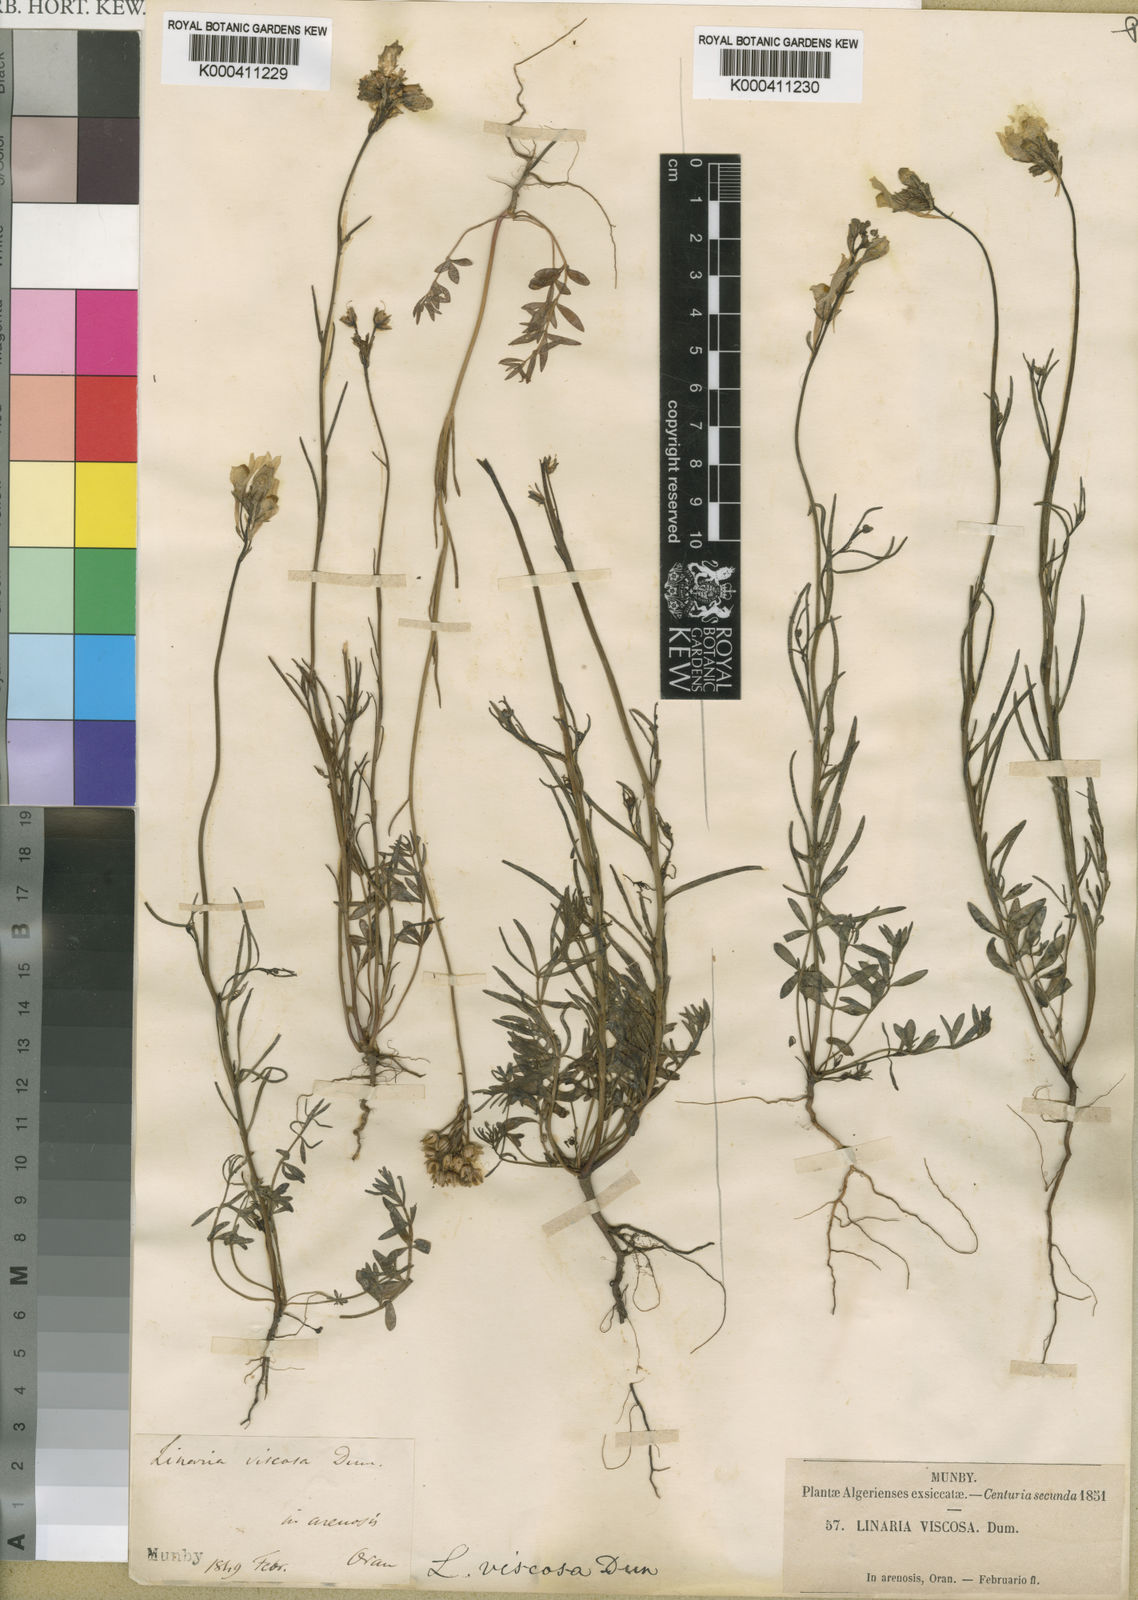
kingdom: Plantae
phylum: Tracheophyta
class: Magnoliopsida
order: Lamiales
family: Plantaginaceae
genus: Linaria
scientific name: Linaria
